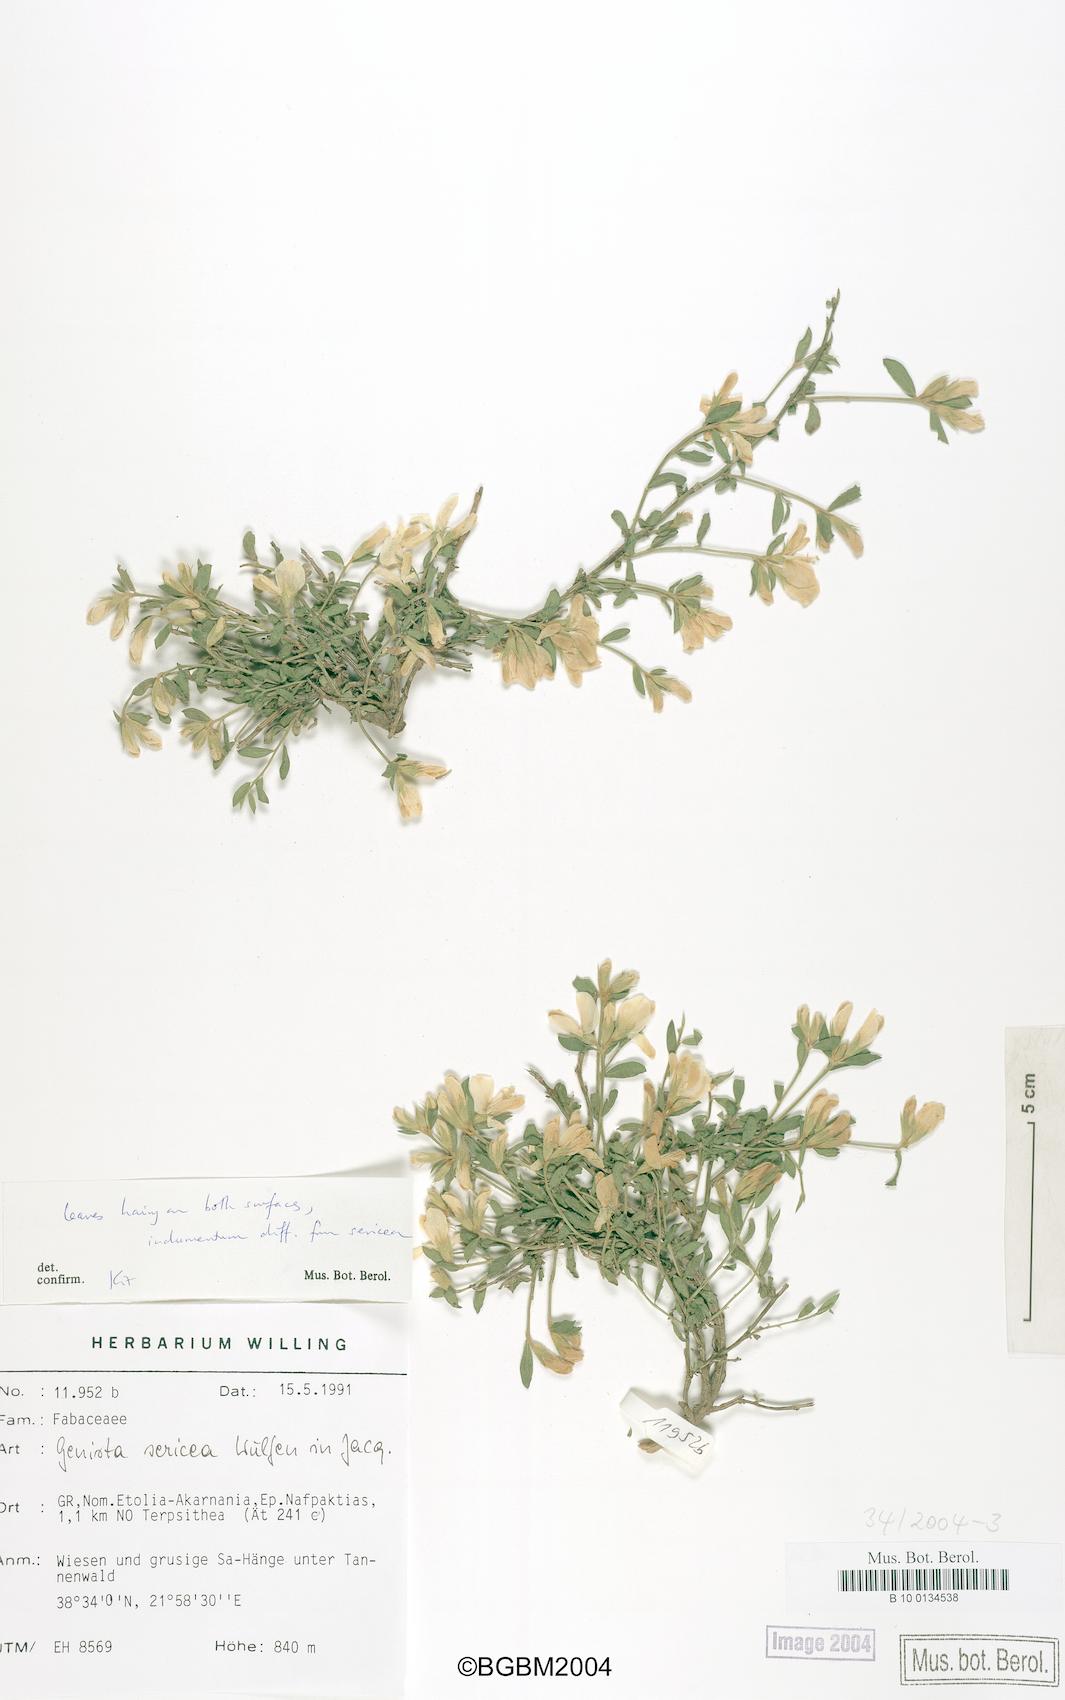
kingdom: Plantae
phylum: Tracheophyta
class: Magnoliopsida
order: Fabales
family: Fabaceae
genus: Genista
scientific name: Genista sericea
